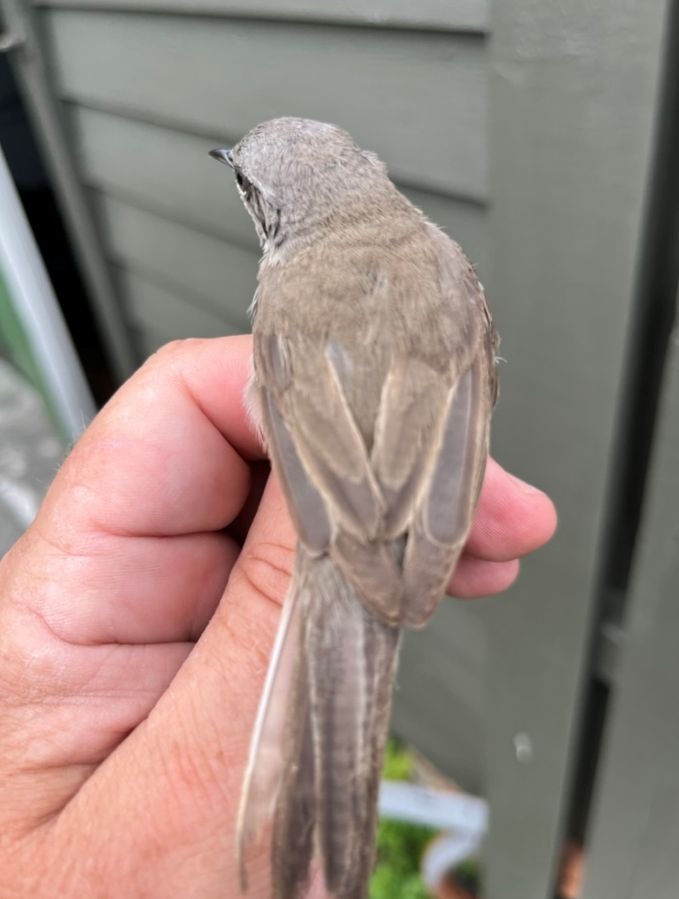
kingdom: Animalia
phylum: Chordata
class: Aves
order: Passeriformes
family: Sylviidae
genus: Sylvia
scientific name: Sylvia curruca
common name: Lesser whitethroat
